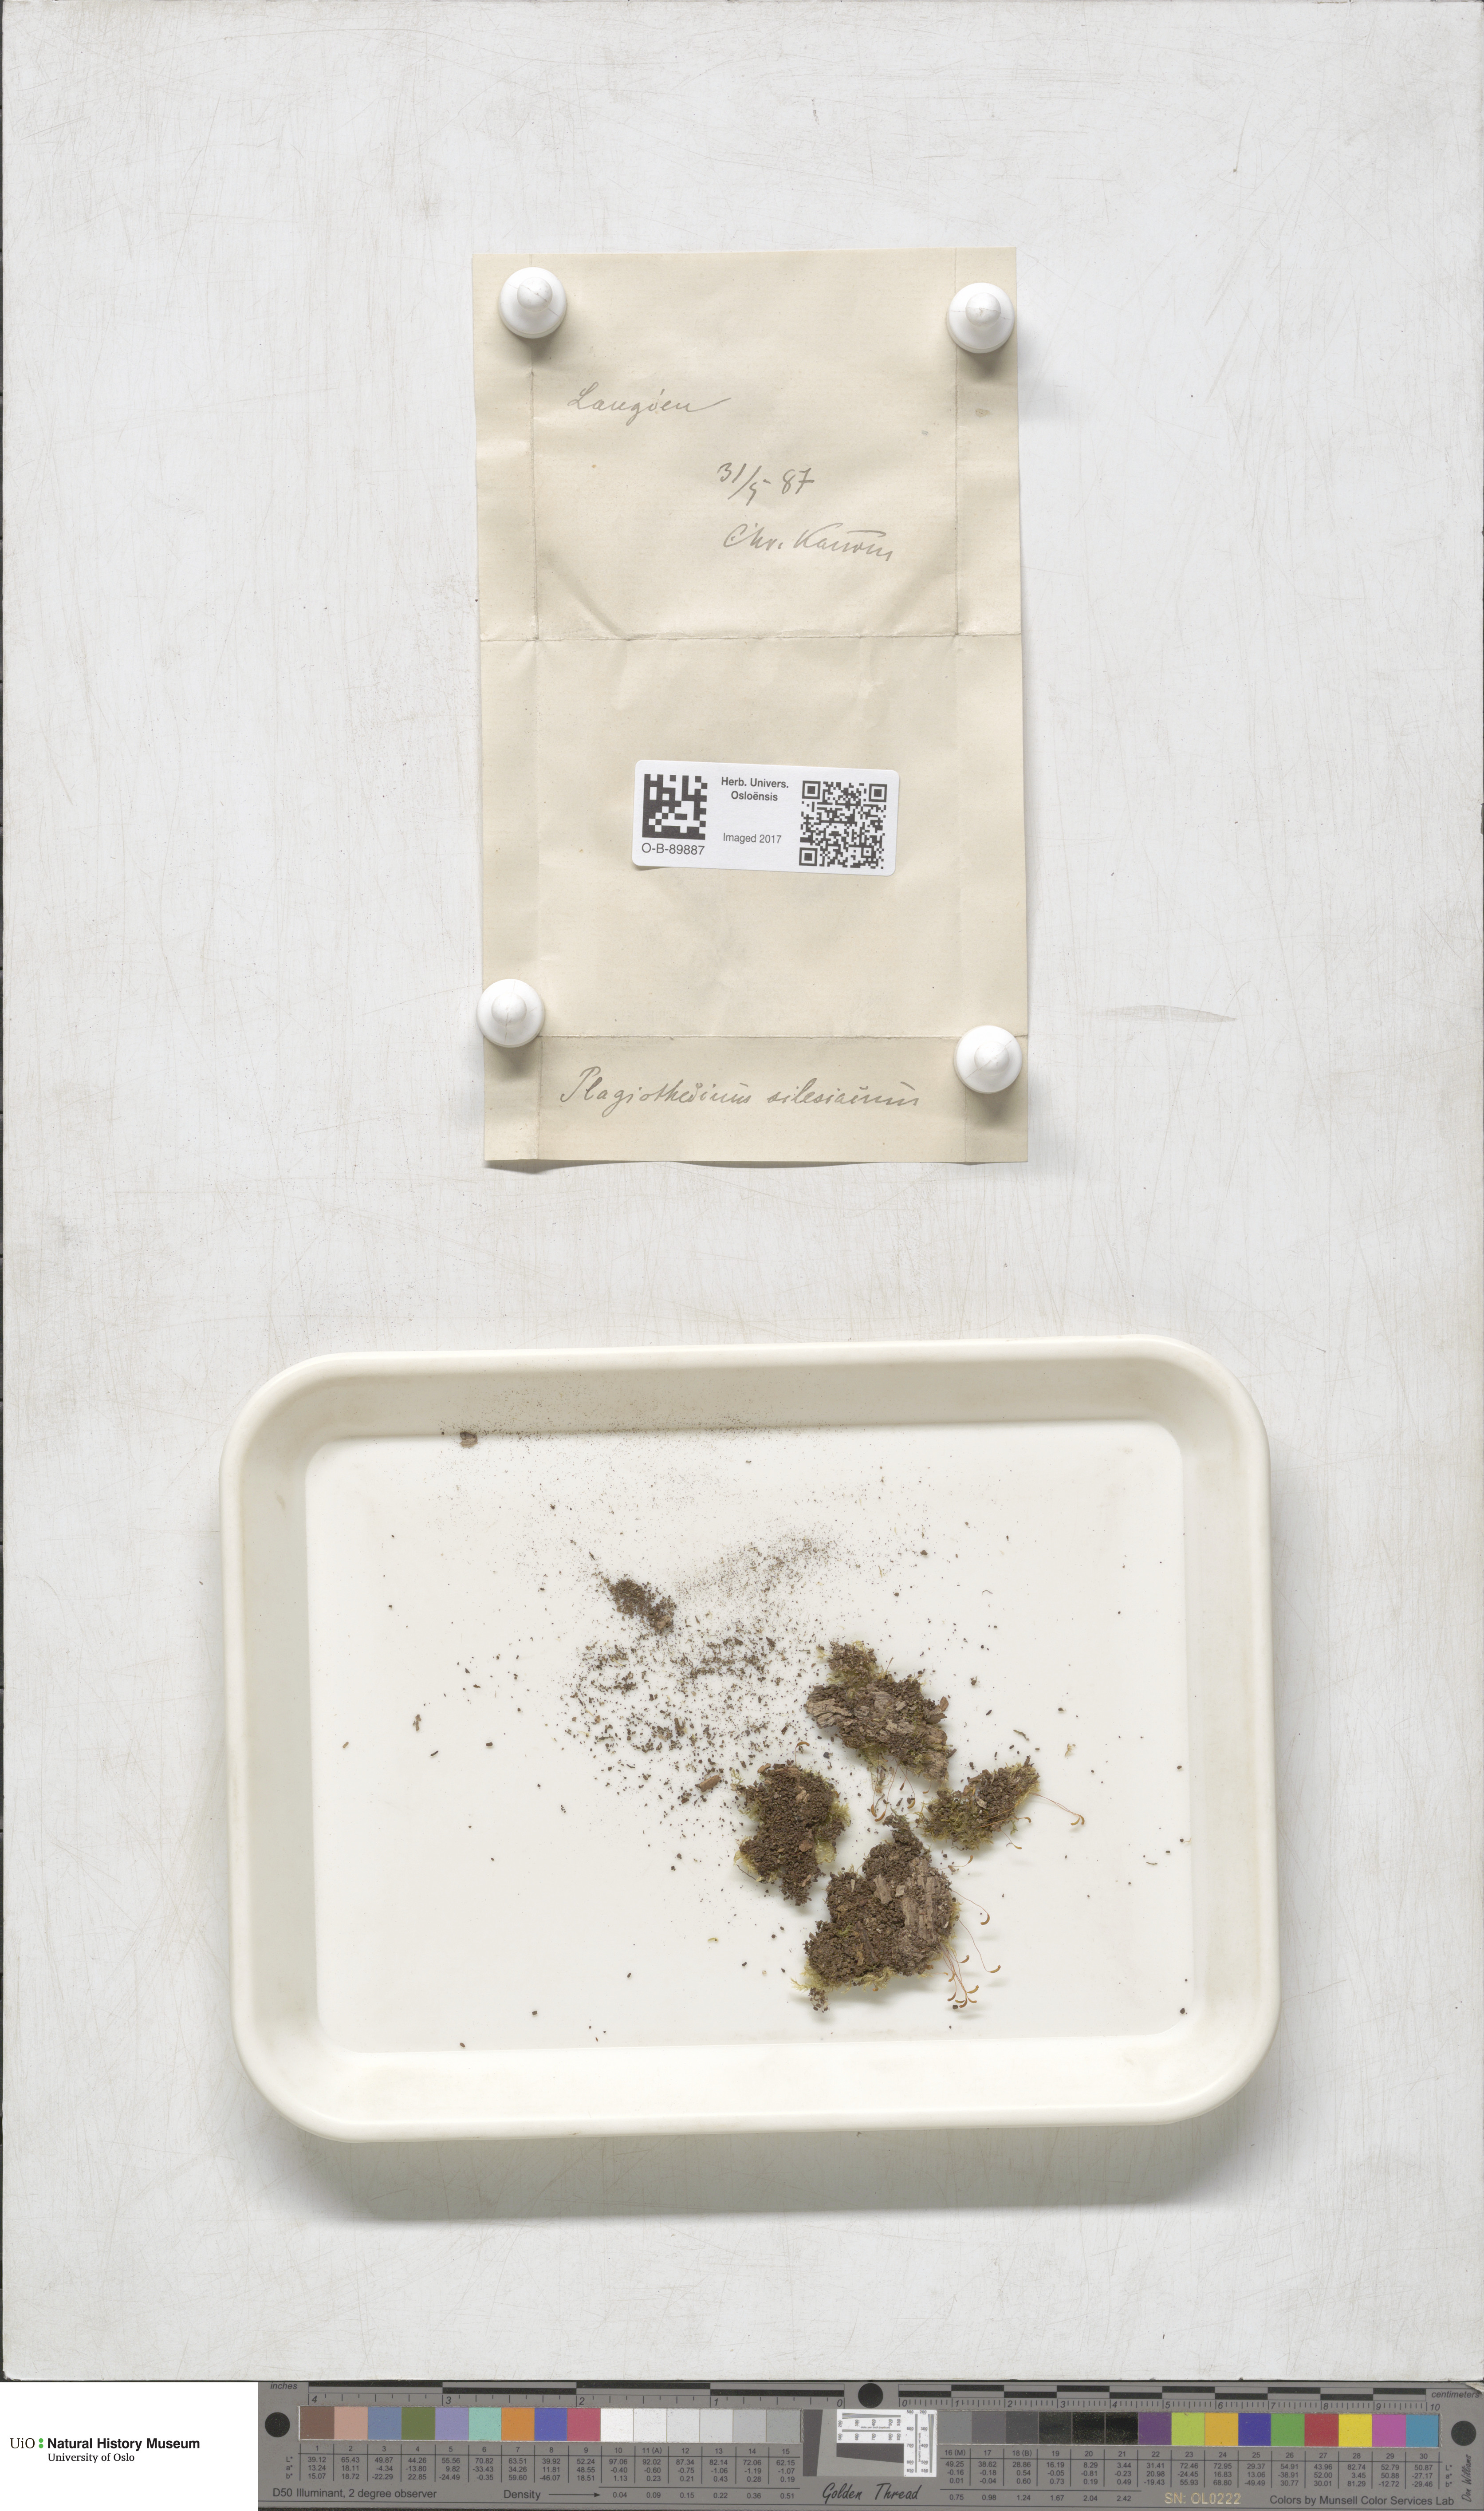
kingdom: Plantae
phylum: Bryophyta
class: Bryopsida
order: Hypnales
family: Plagiotheciaceae
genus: Herzogiella
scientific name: Herzogiella seligeri
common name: Silesian feather-moss
